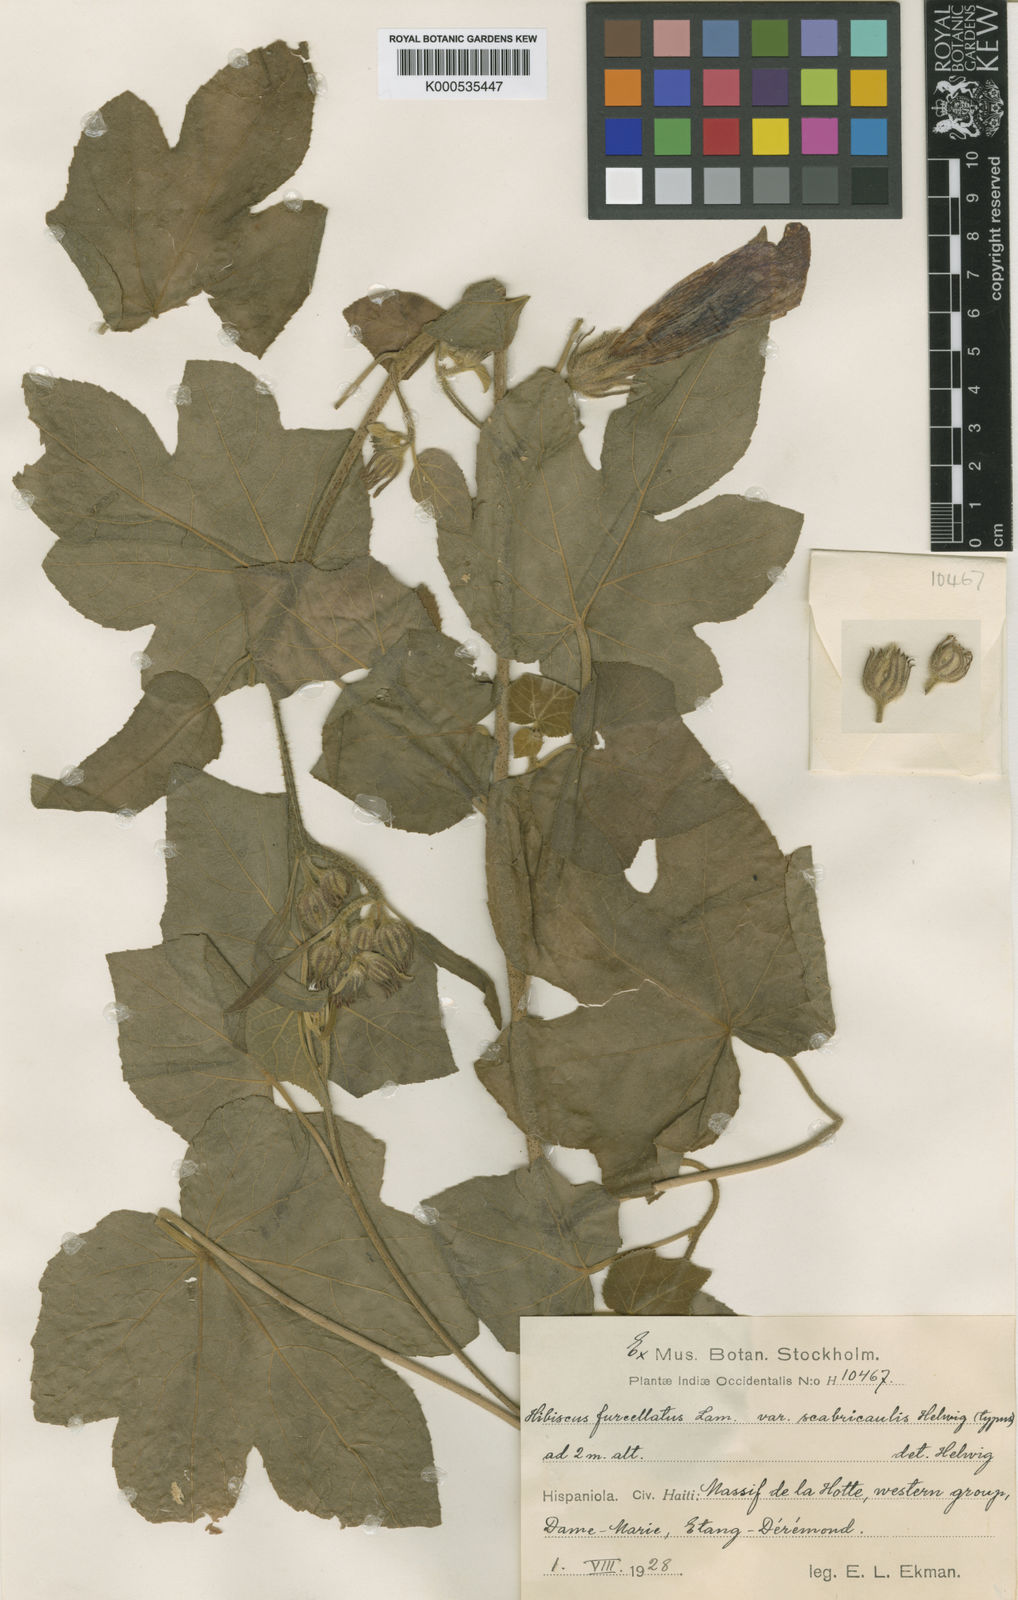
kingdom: Plantae
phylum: Tracheophyta
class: Magnoliopsida
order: Malvales
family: Malvaceae
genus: Hibiscus
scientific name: Hibiscus furcellatus
